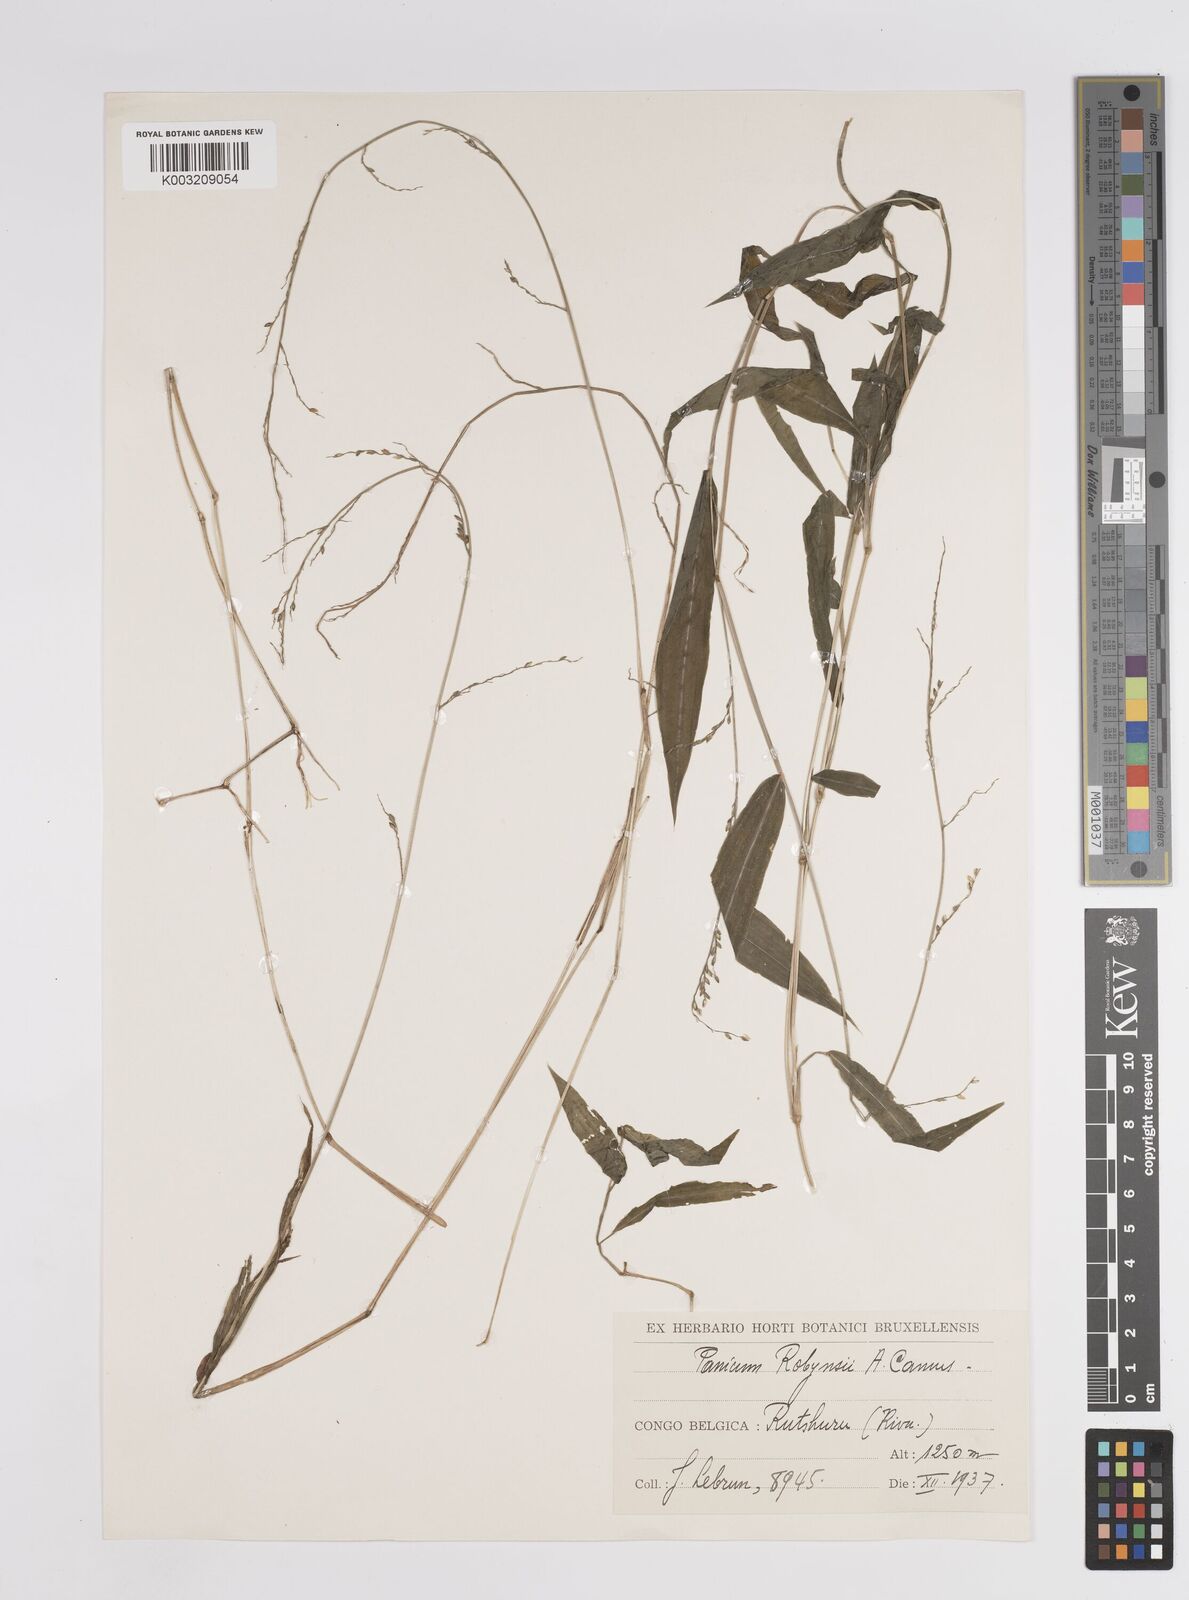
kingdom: Plantae
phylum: Tracheophyta
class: Liliopsida
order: Poales
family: Poaceae
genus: Panicum
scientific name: Panicum robynsii
